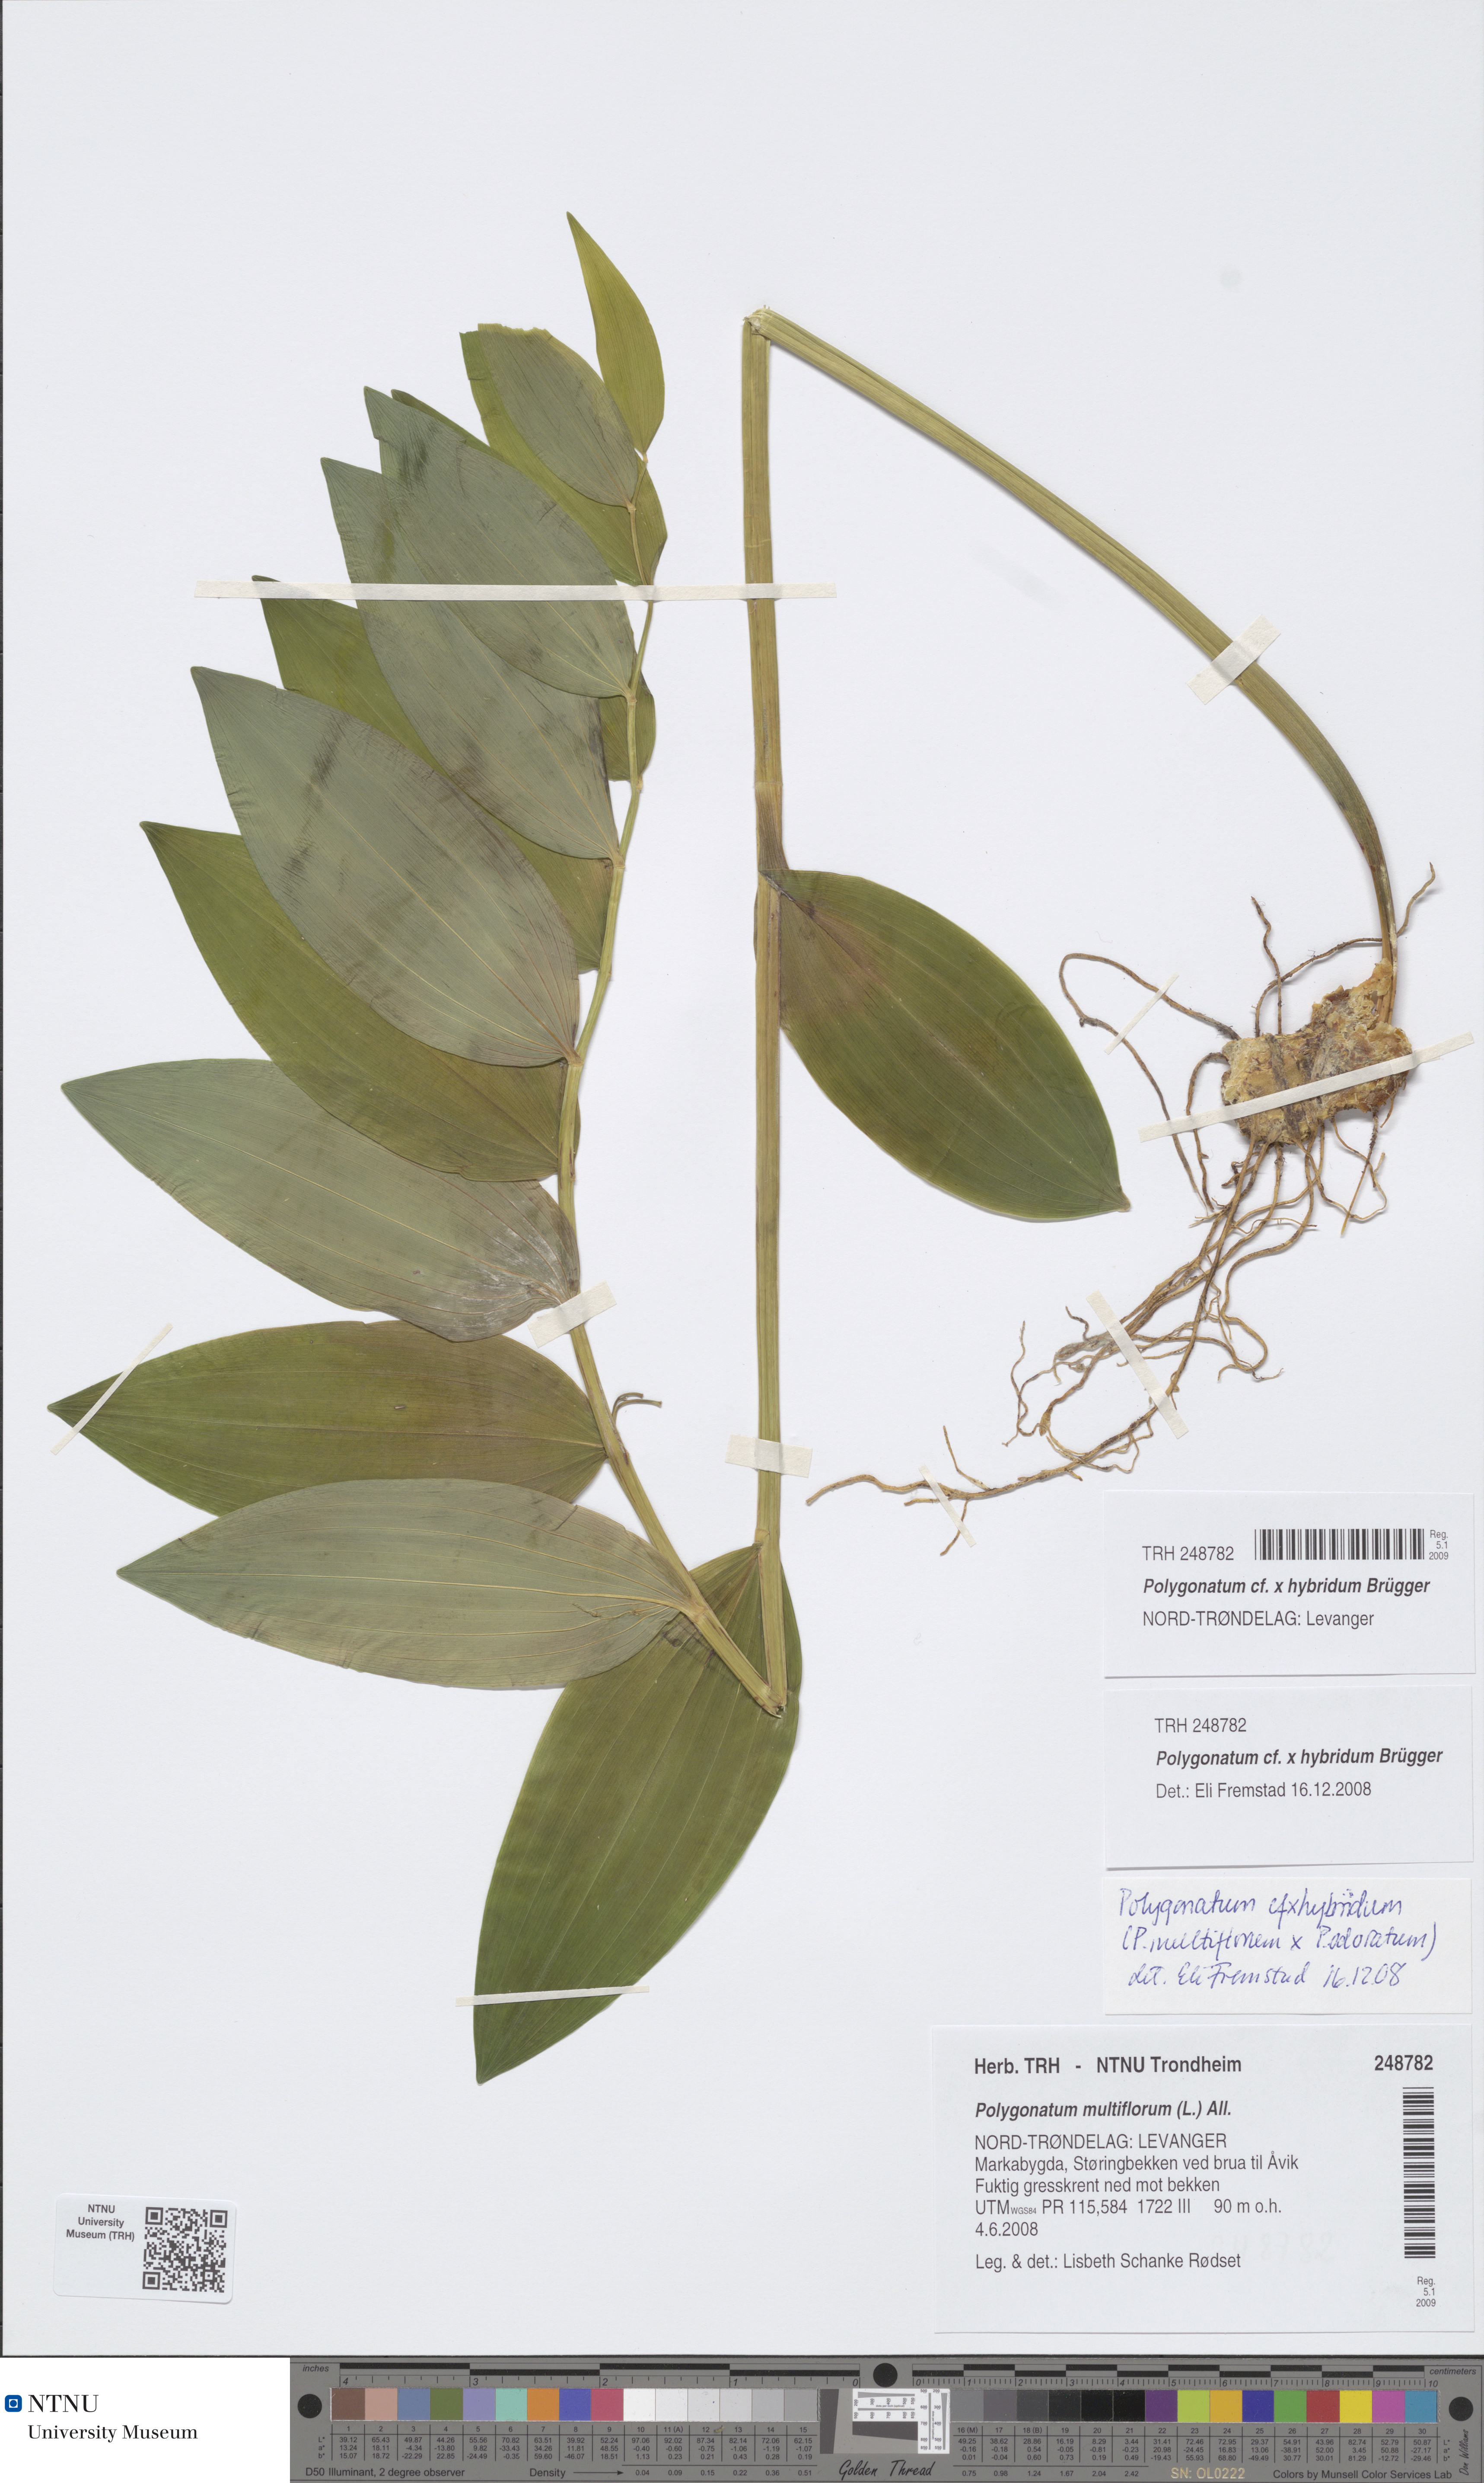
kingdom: Plantae
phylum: Tracheophyta
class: Liliopsida
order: Asparagales
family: Asparagaceae
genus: Polygonatum
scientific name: Polygonatum hybridum
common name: Garden solomon's-seal
